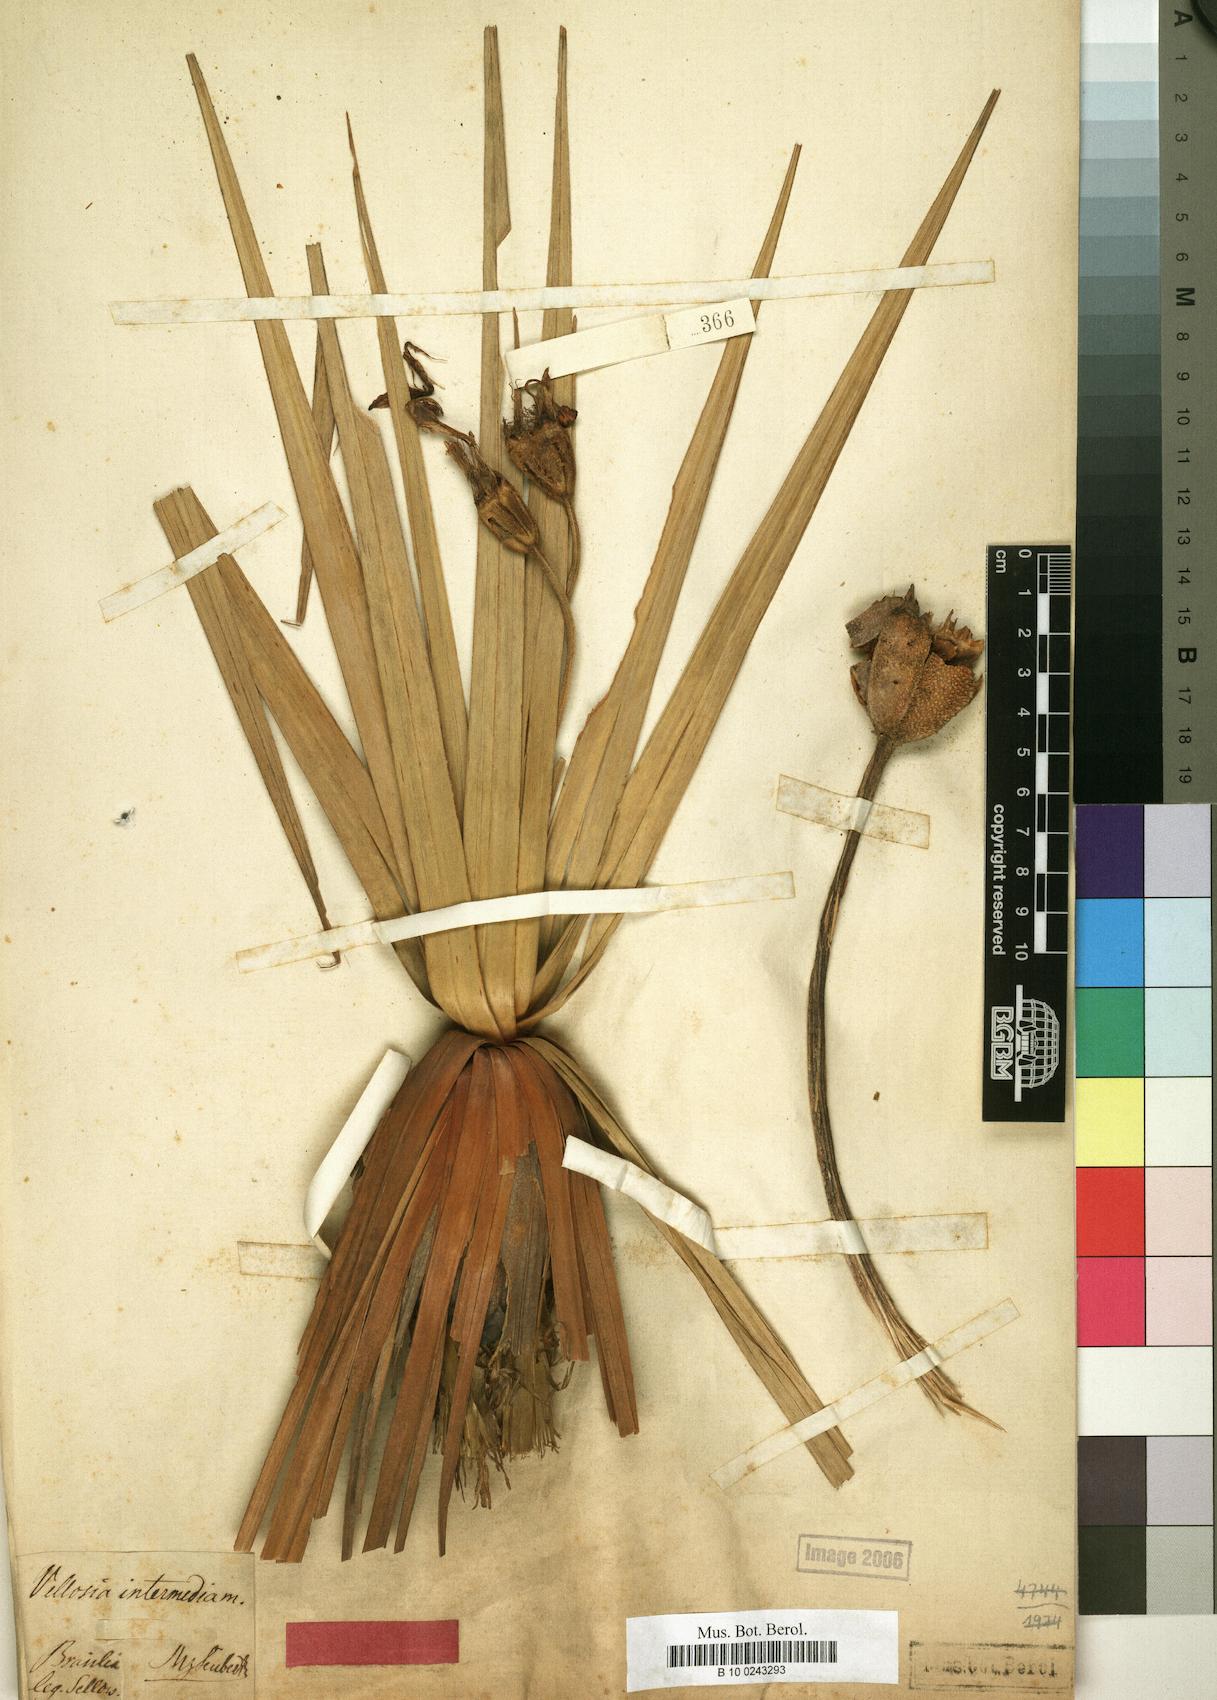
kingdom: Plantae
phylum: Tracheophyta
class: Liliopsida
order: Pandanales
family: Velloziaceae
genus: Vellozia
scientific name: Vellozia intermedia
